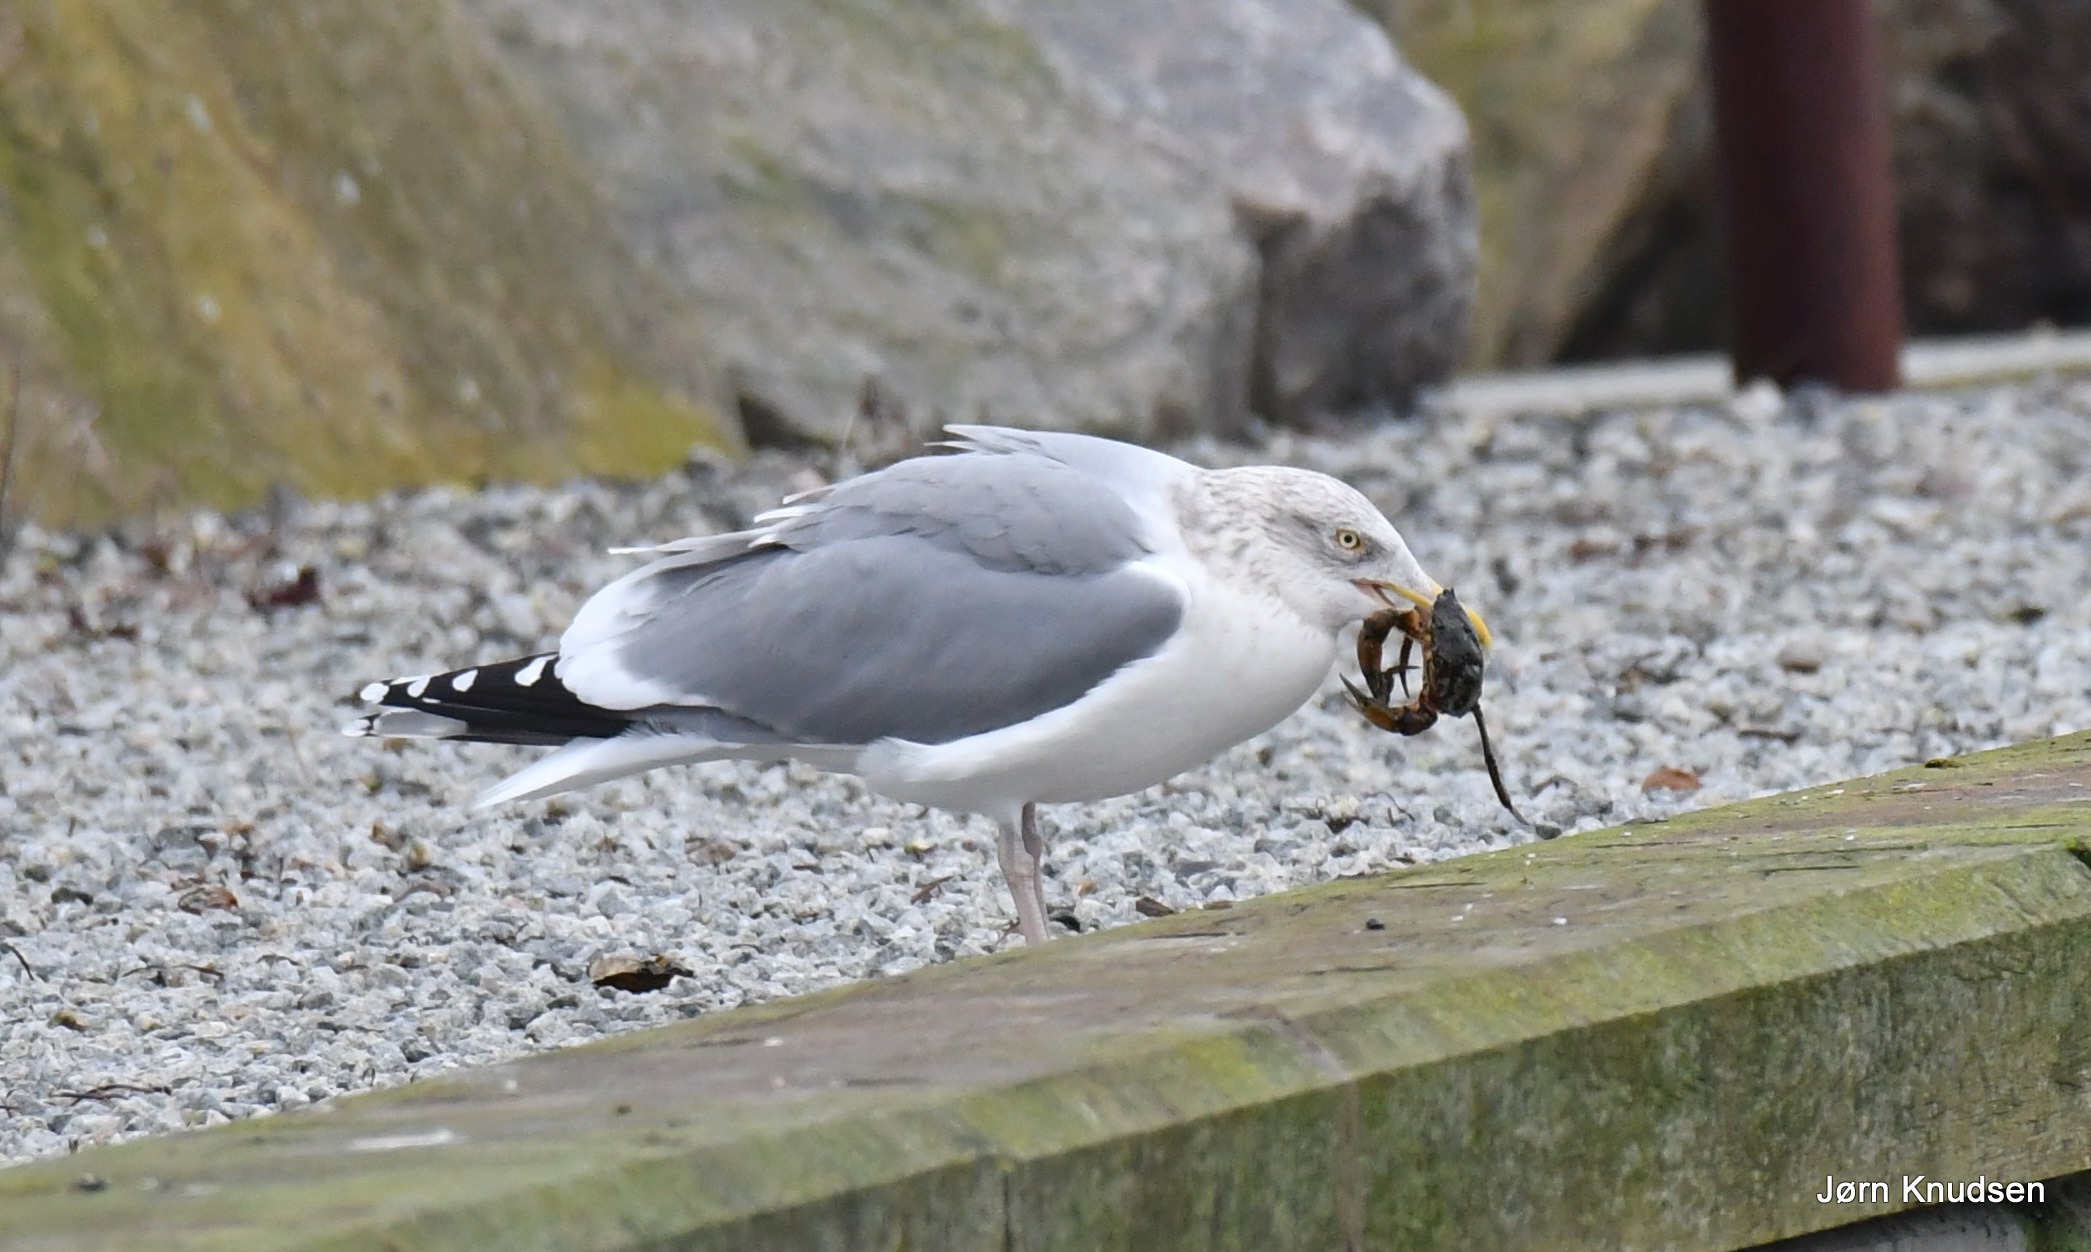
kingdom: Animalia
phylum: Chordata
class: Aves
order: Charadriiformes
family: Laridae
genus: Larus
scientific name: Larus argentatus
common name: Sølvmåge
